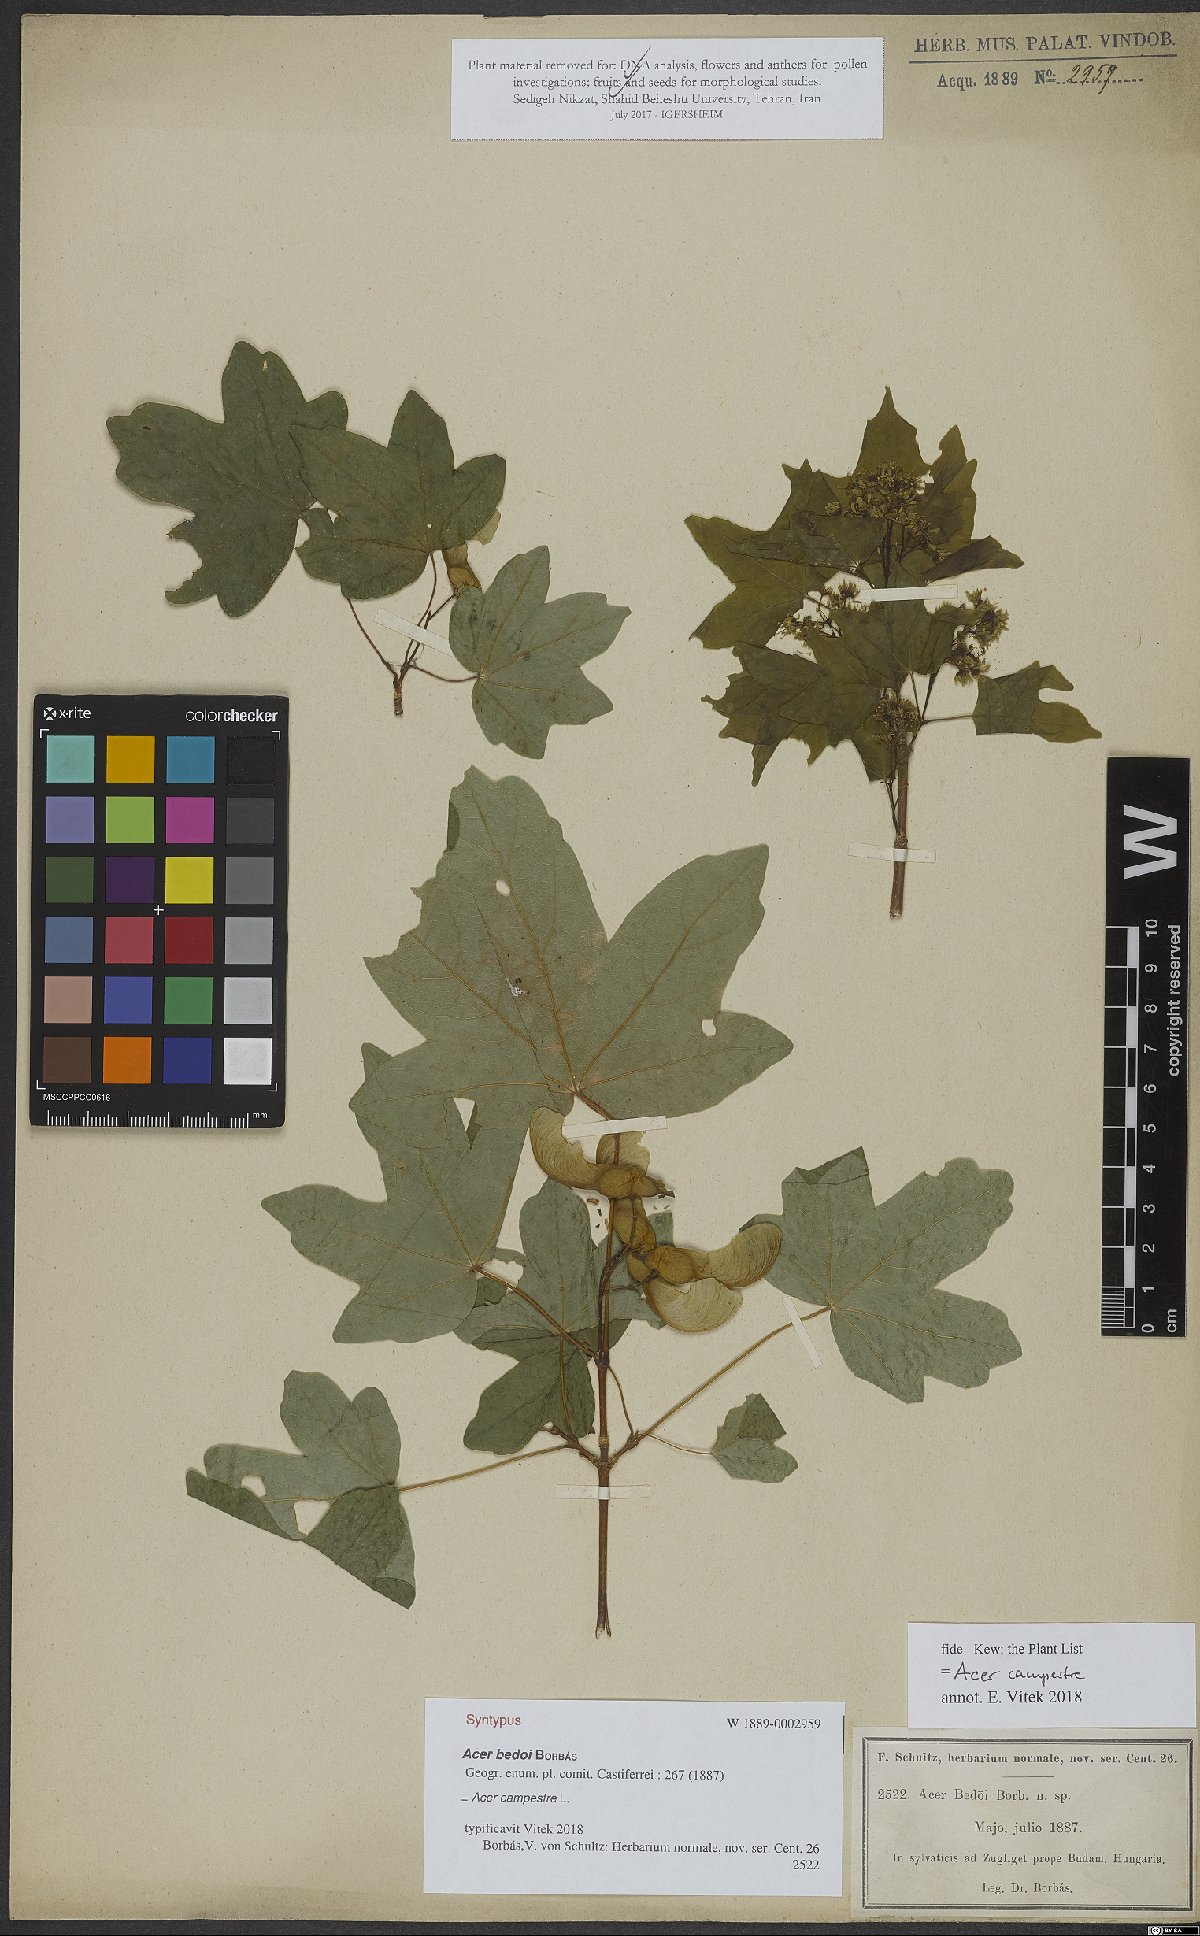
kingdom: Plantae
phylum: Tracheophyta
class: Magnoliopsida
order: Sapindales
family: Sapindaceae
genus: Acer
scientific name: Acer campestre
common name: Field maple
